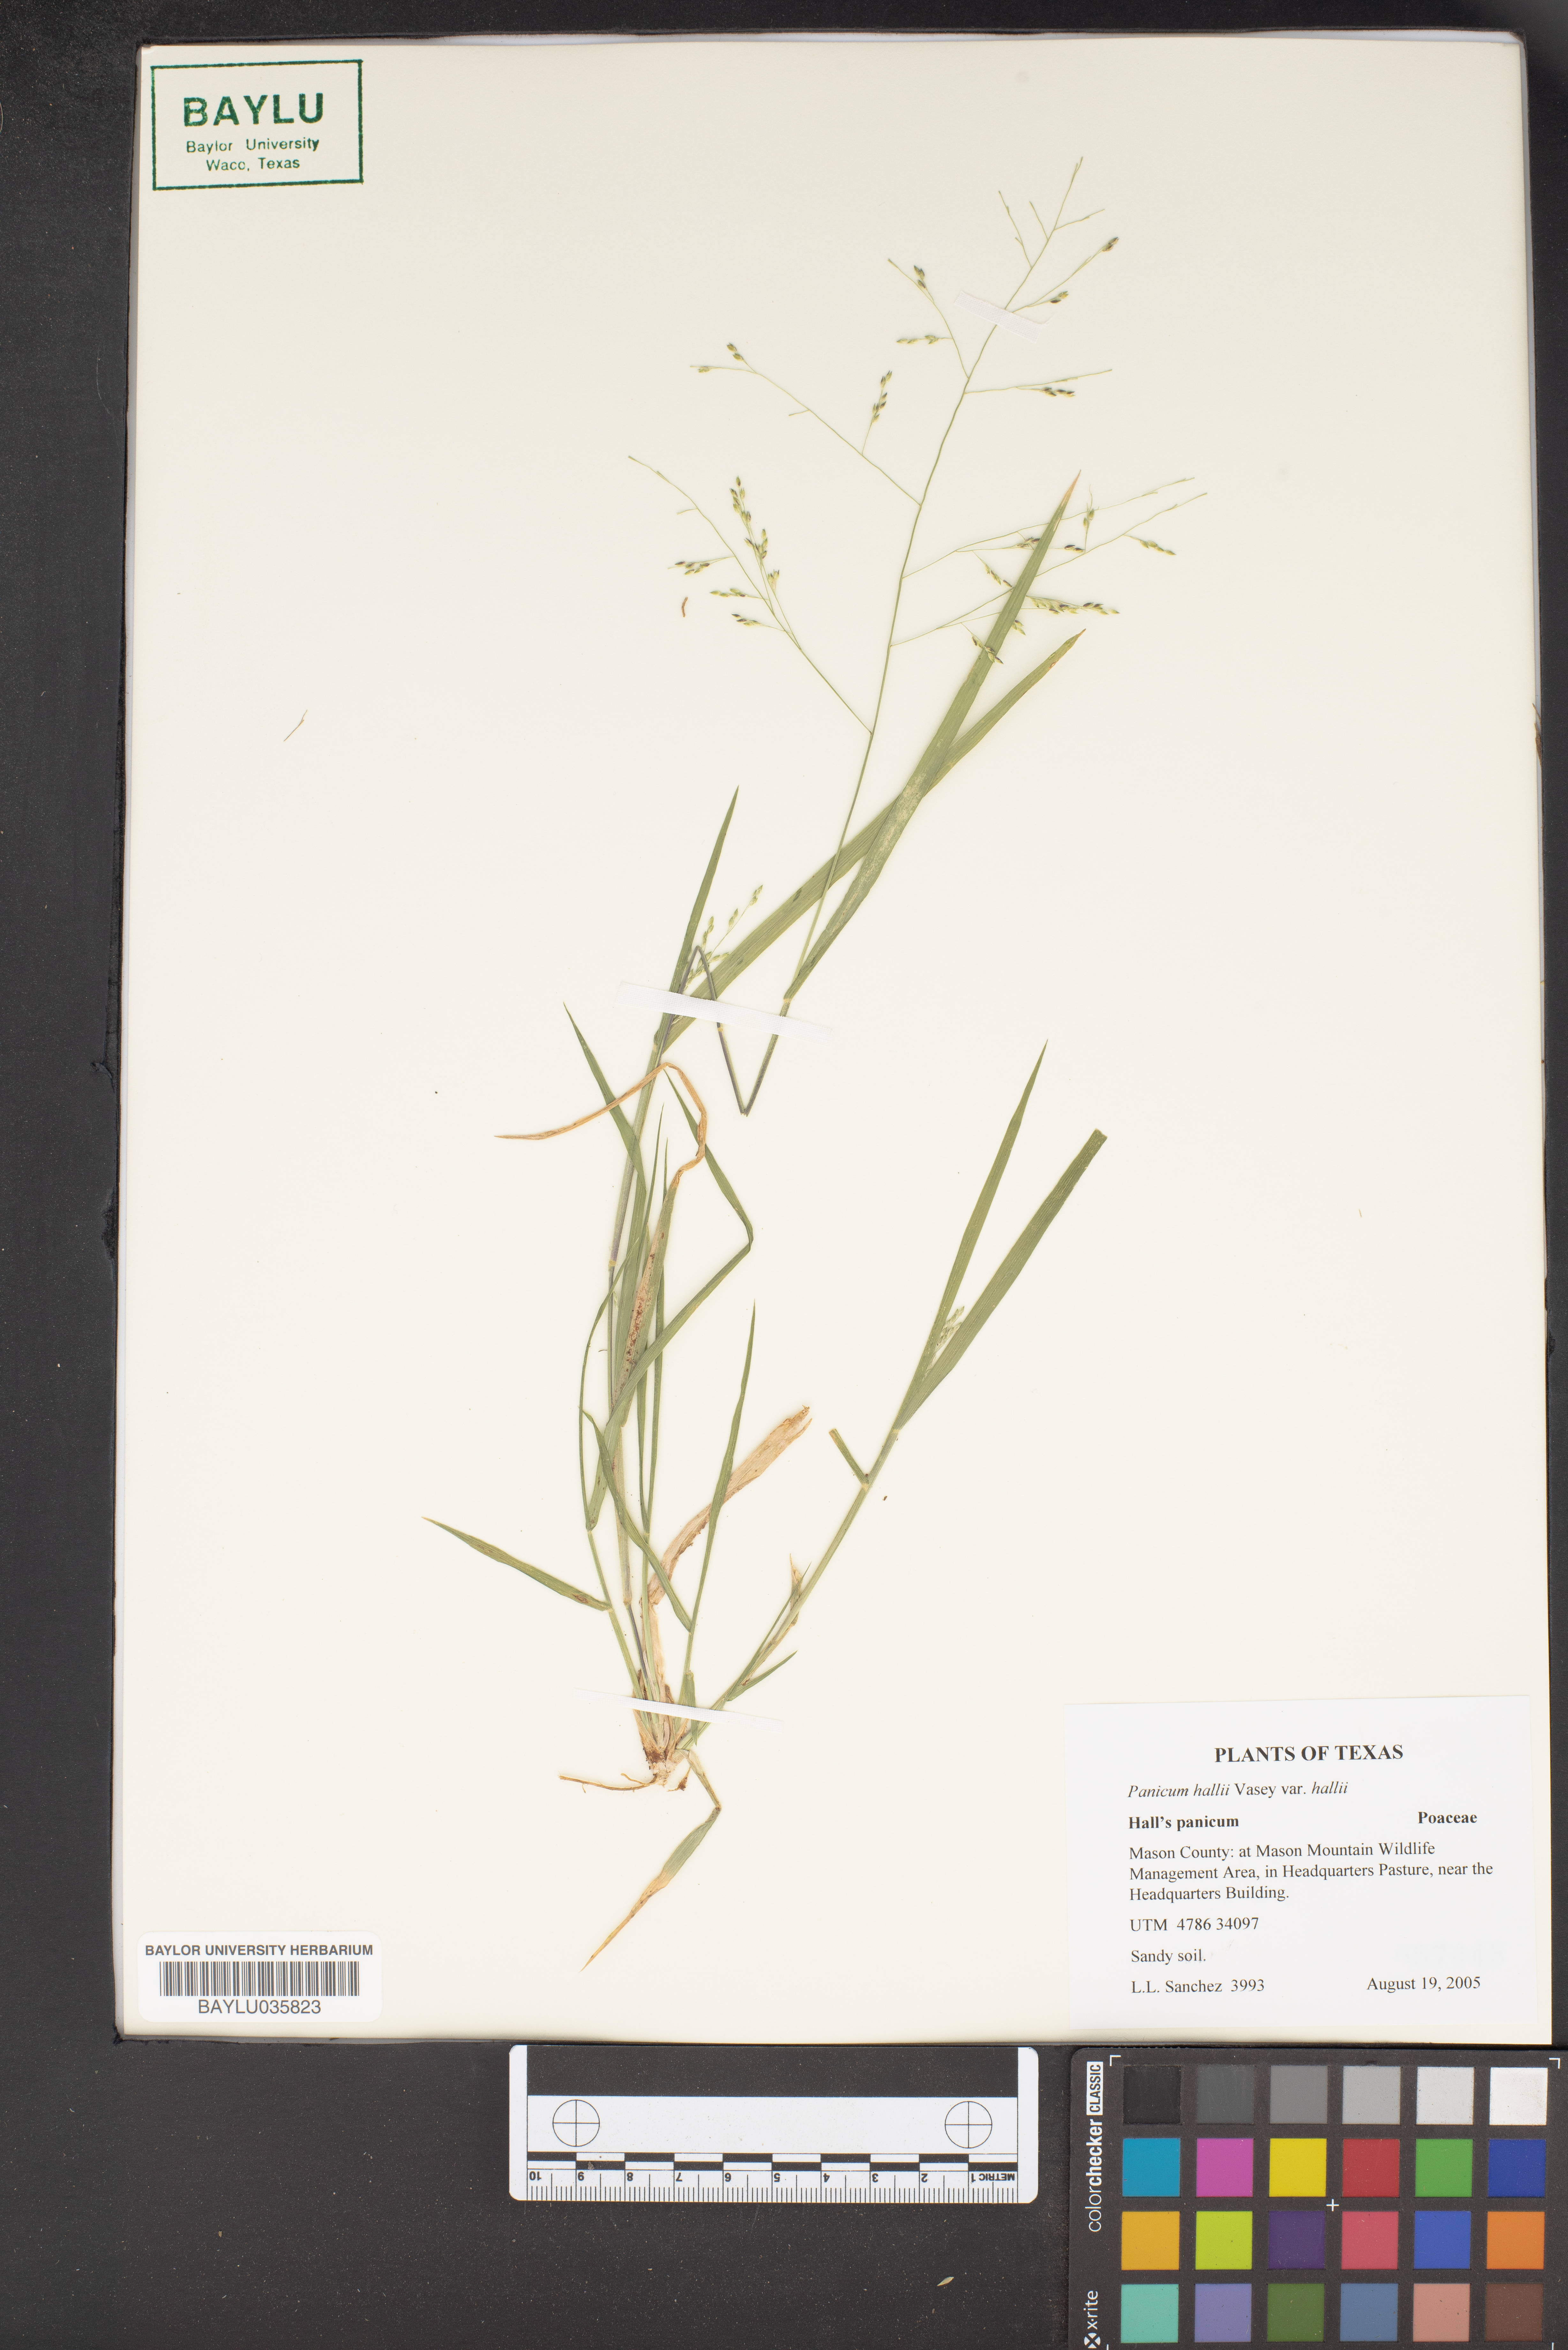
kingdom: Plantae
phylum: Tracheophyta
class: Liliopsida
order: Poales
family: Poaceae
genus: Panicum
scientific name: Panicum hallii
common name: Hall's witchgrass
